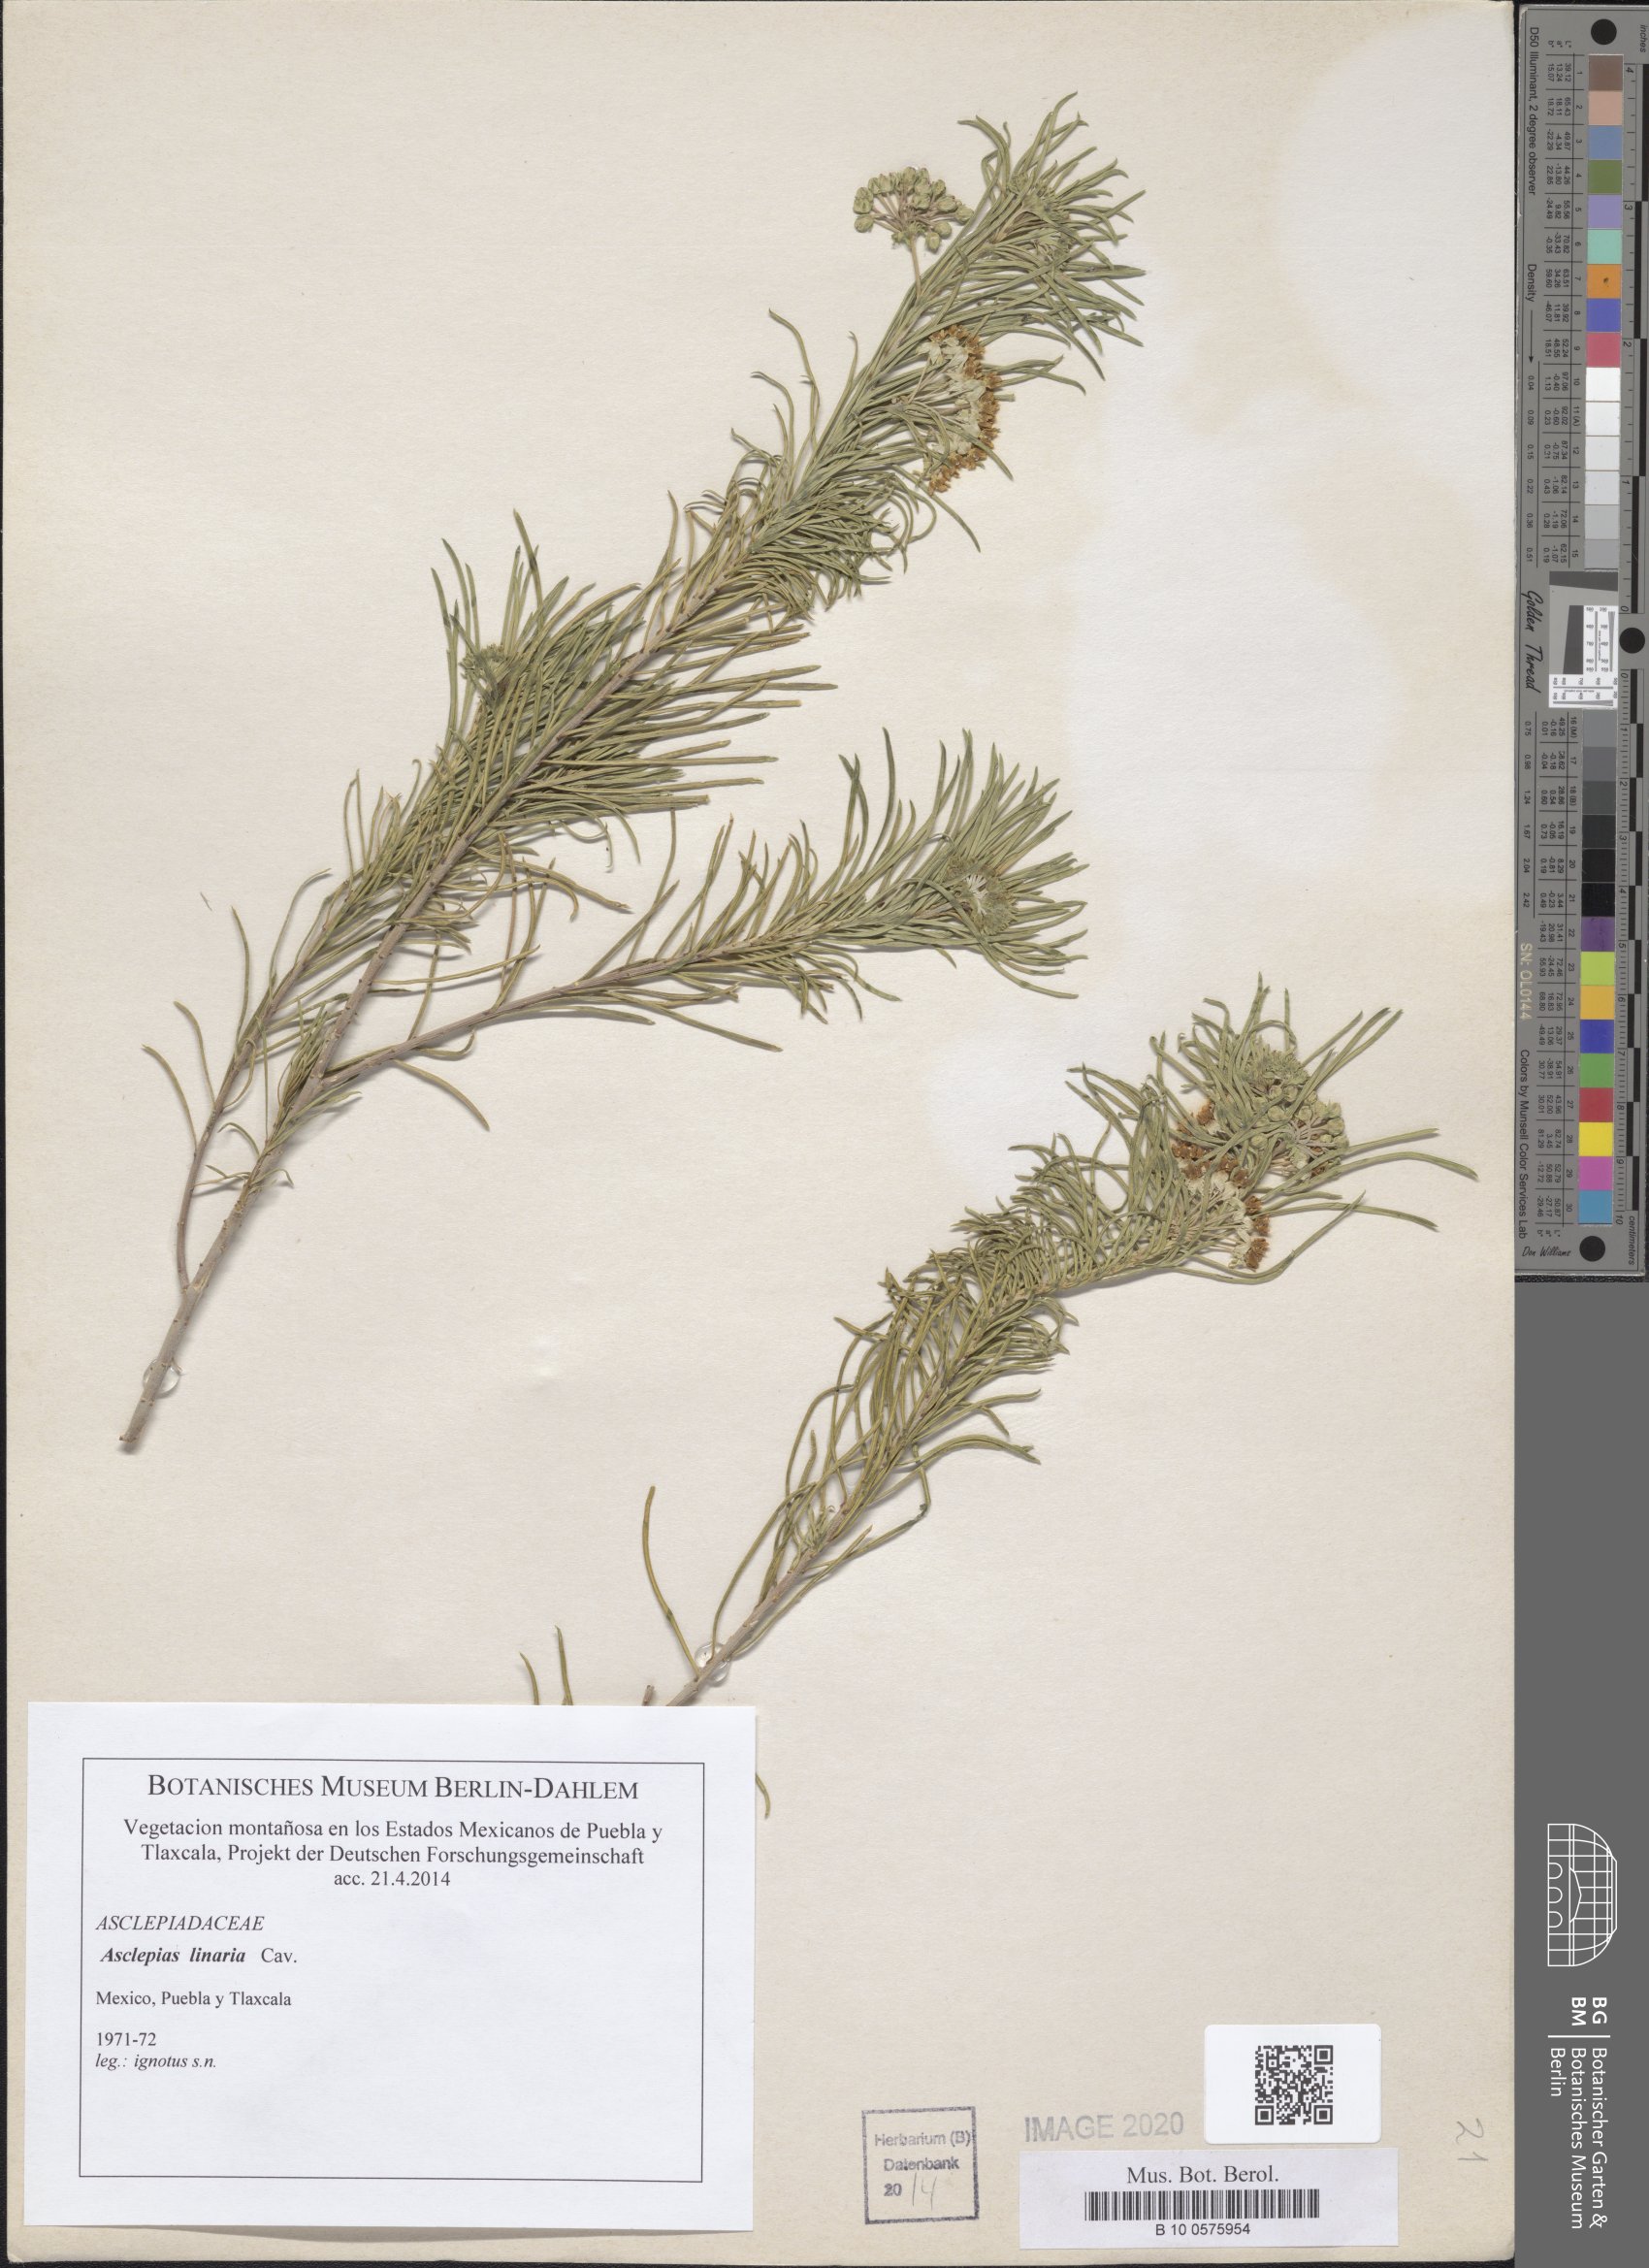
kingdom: Plantae
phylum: Tracheophyta
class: Magnoliopsida
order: Gentianales
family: Apocynaceae
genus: Asclepias
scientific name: Asclepias linaria
